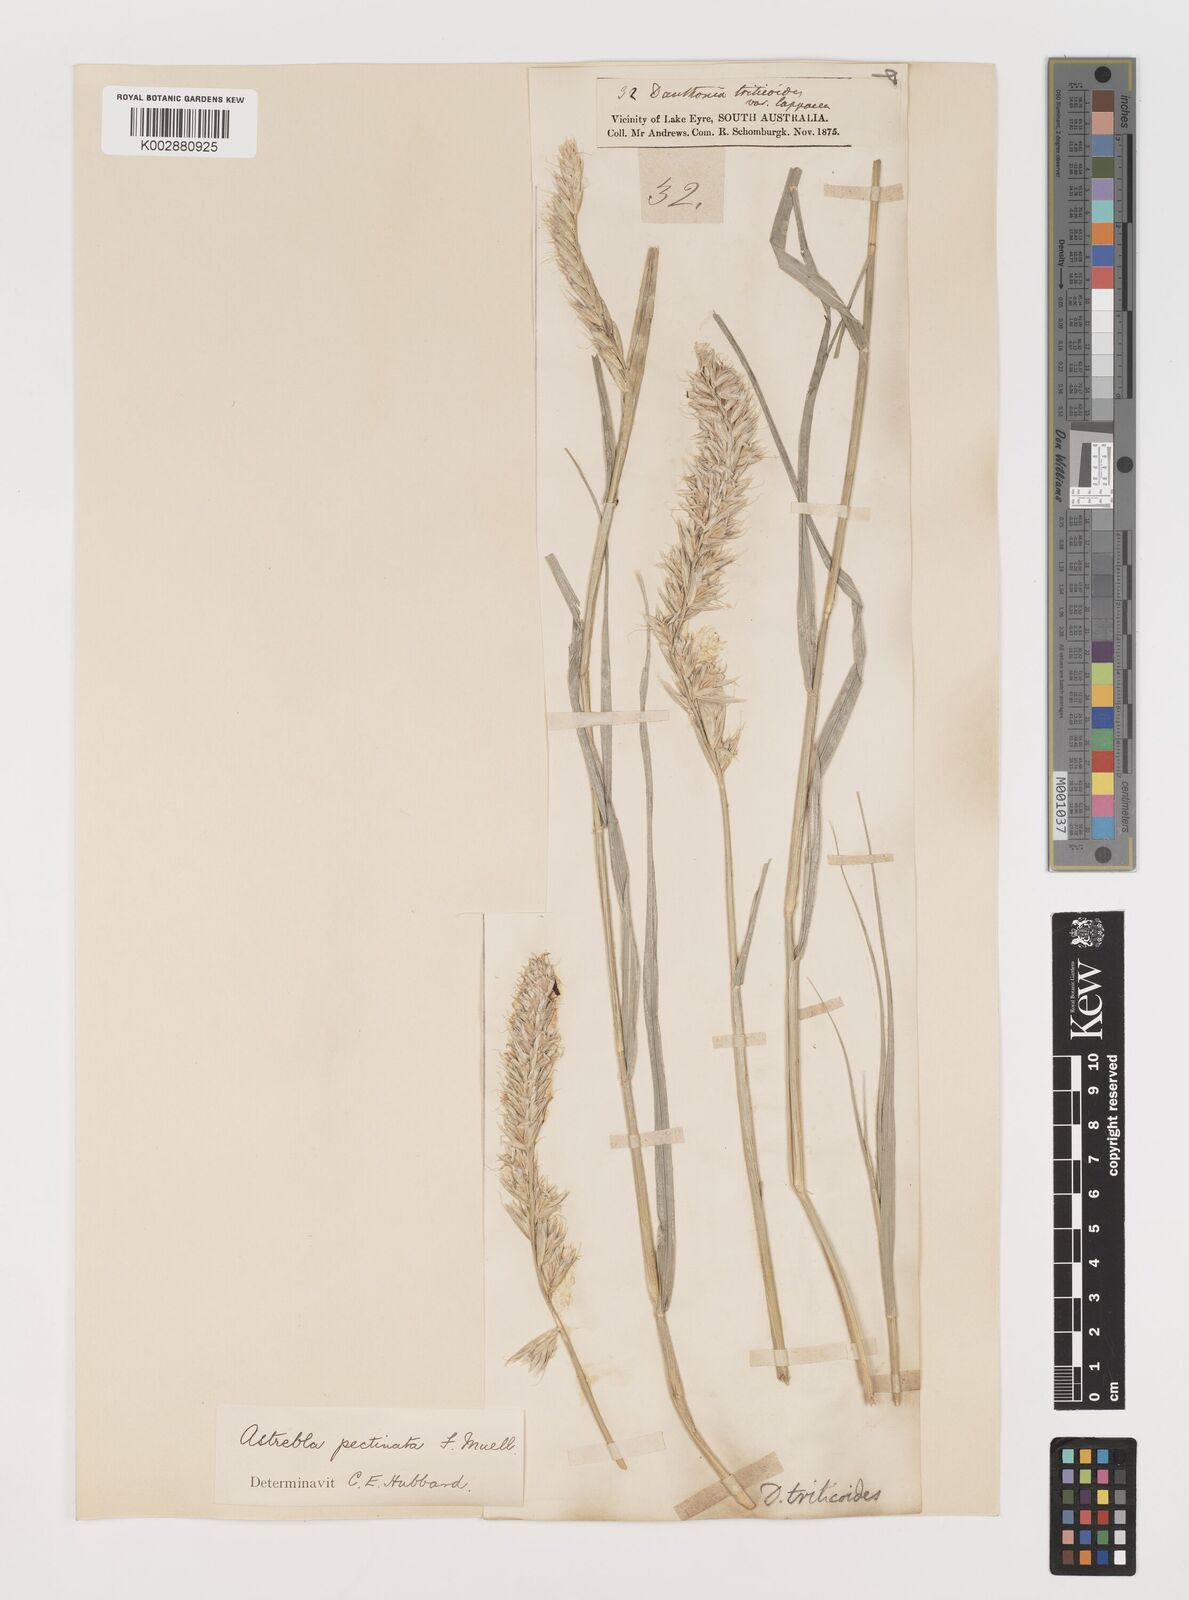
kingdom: Plantae
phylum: Tracheophyta
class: Liliopsida
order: Poales
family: Poaceae
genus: Astrebla
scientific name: Astrebla pectinata
